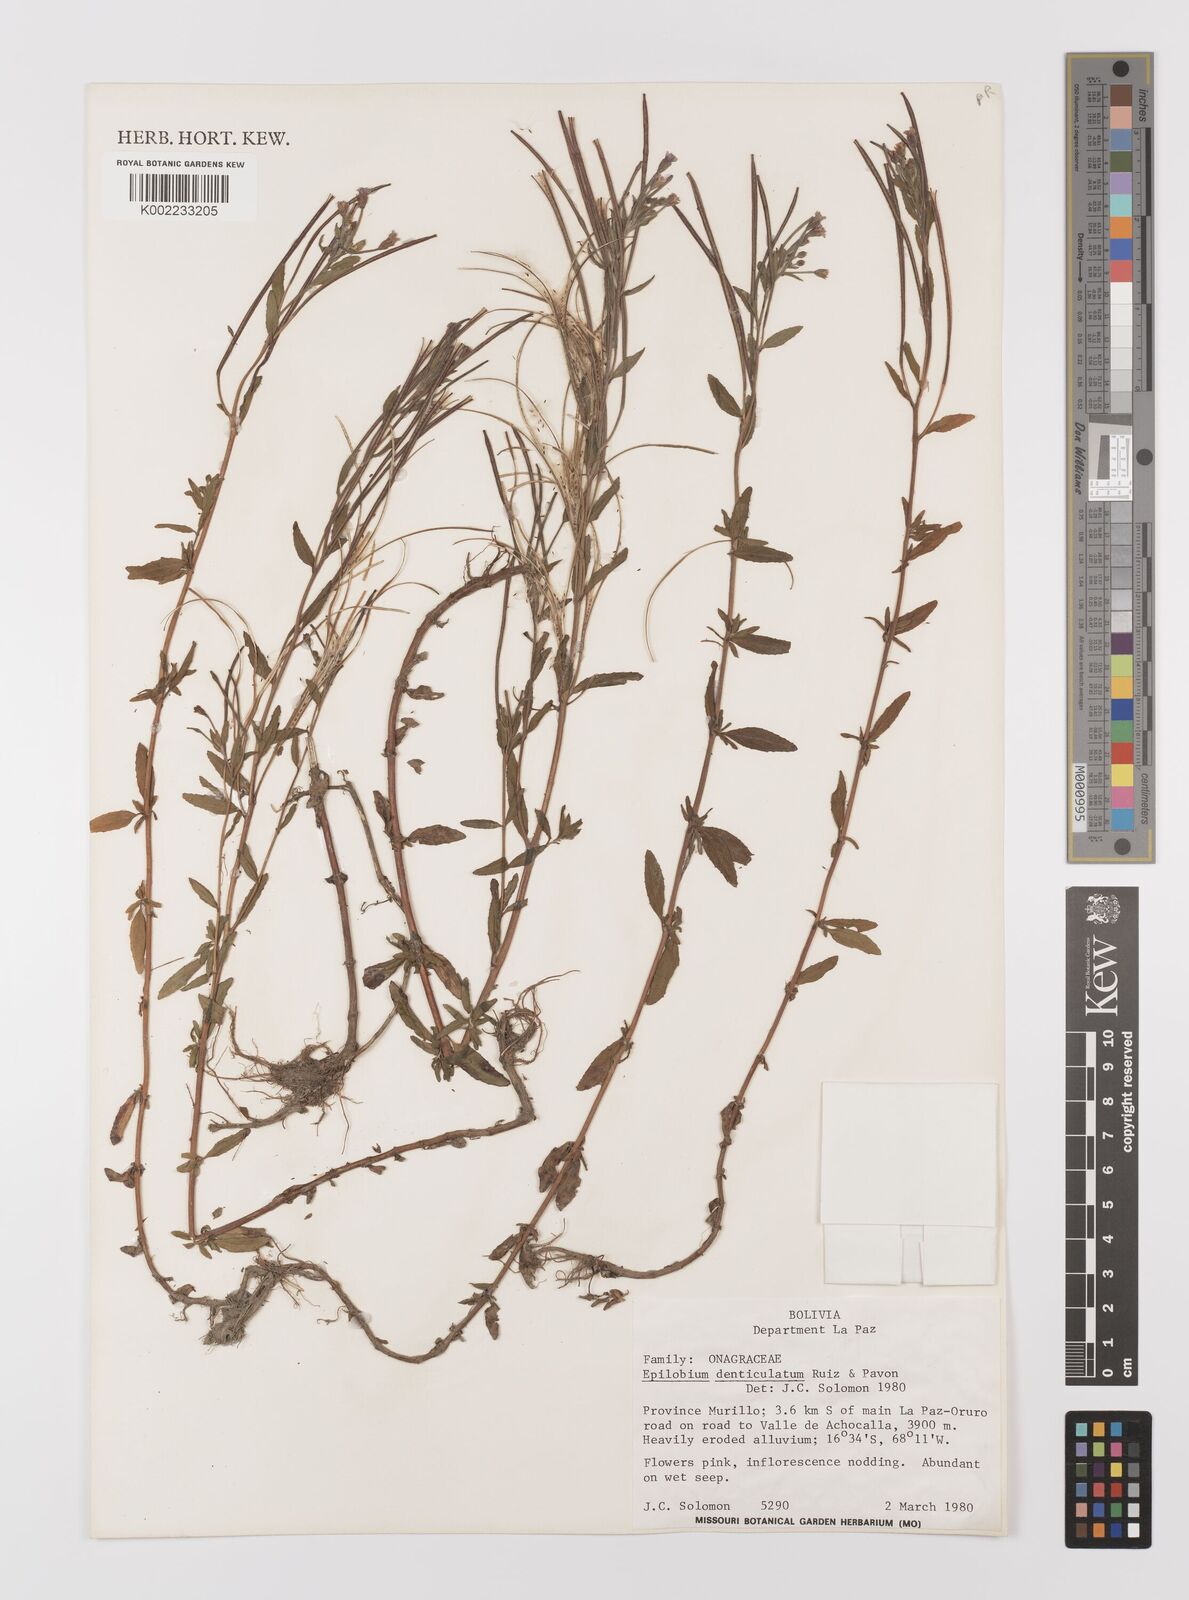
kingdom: Plantae
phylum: Tracheophyta
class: Magnoliopsida
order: Myrtales
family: Onagraceae
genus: Epilobium
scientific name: Epilobium denticulatum
